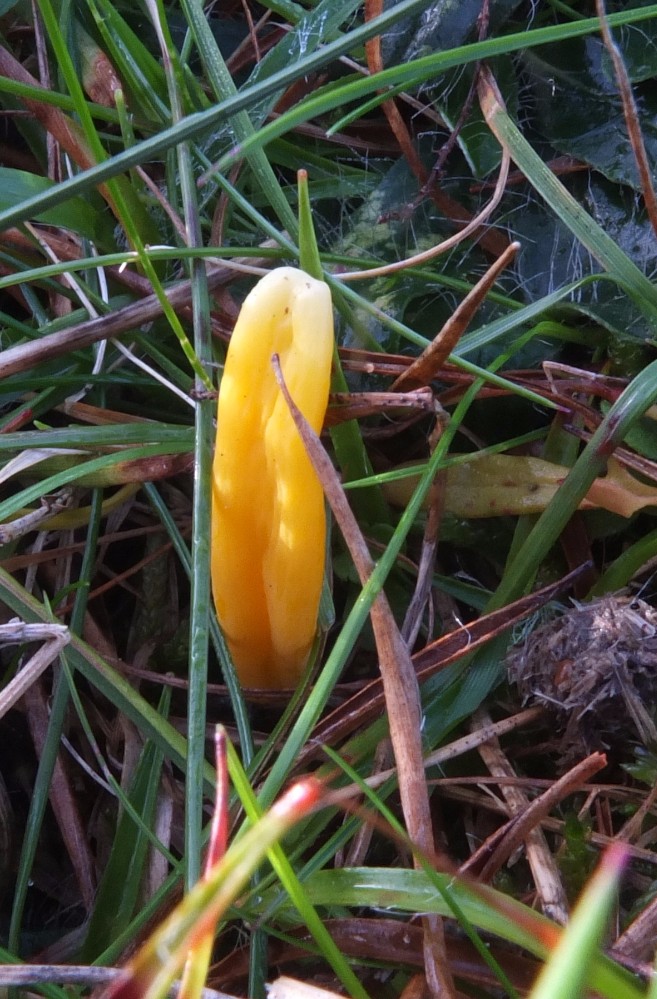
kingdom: Fungi
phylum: Basidiomycota
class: Agaricomycetes
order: Agaricales
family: Clavariaceae
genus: Clavulinopsis
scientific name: Clavulinopsis luteoalba
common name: abrikos-køllesvamp
